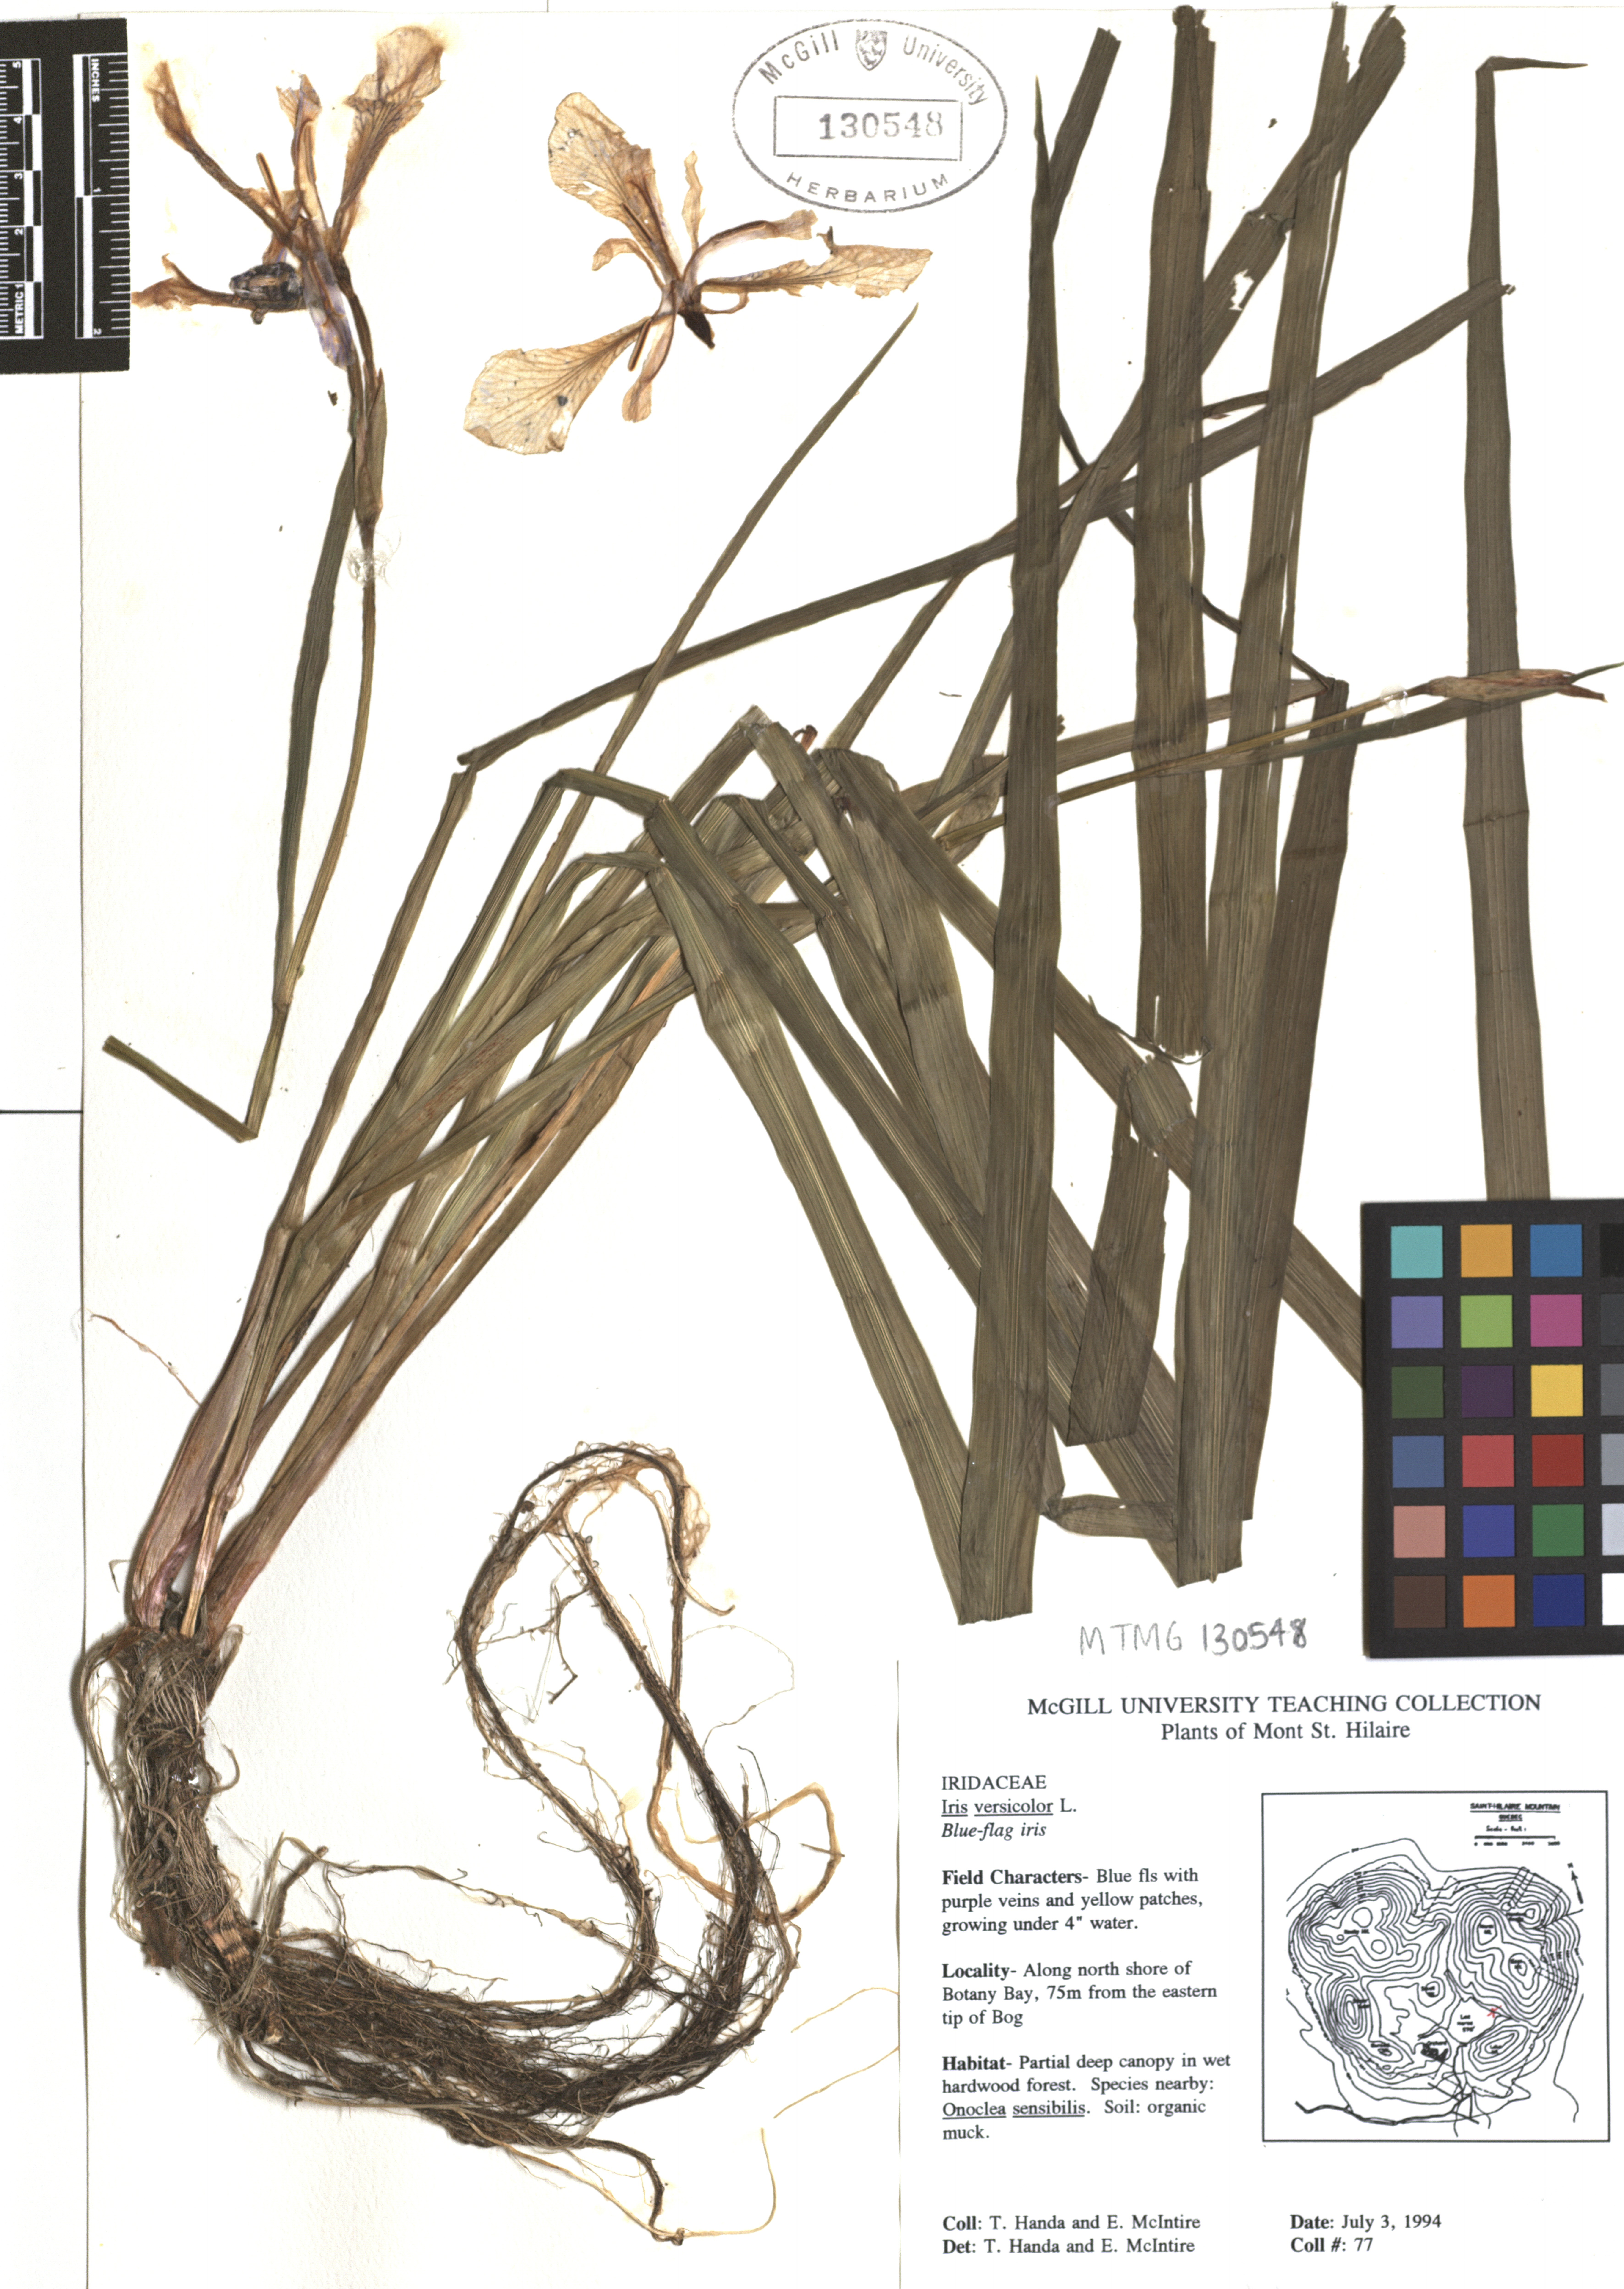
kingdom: Plantae
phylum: Tracheophyta
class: Liliopsida
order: Asparagales
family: Iridaceae
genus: Iris
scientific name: Iris versicolor
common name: Purple iris
